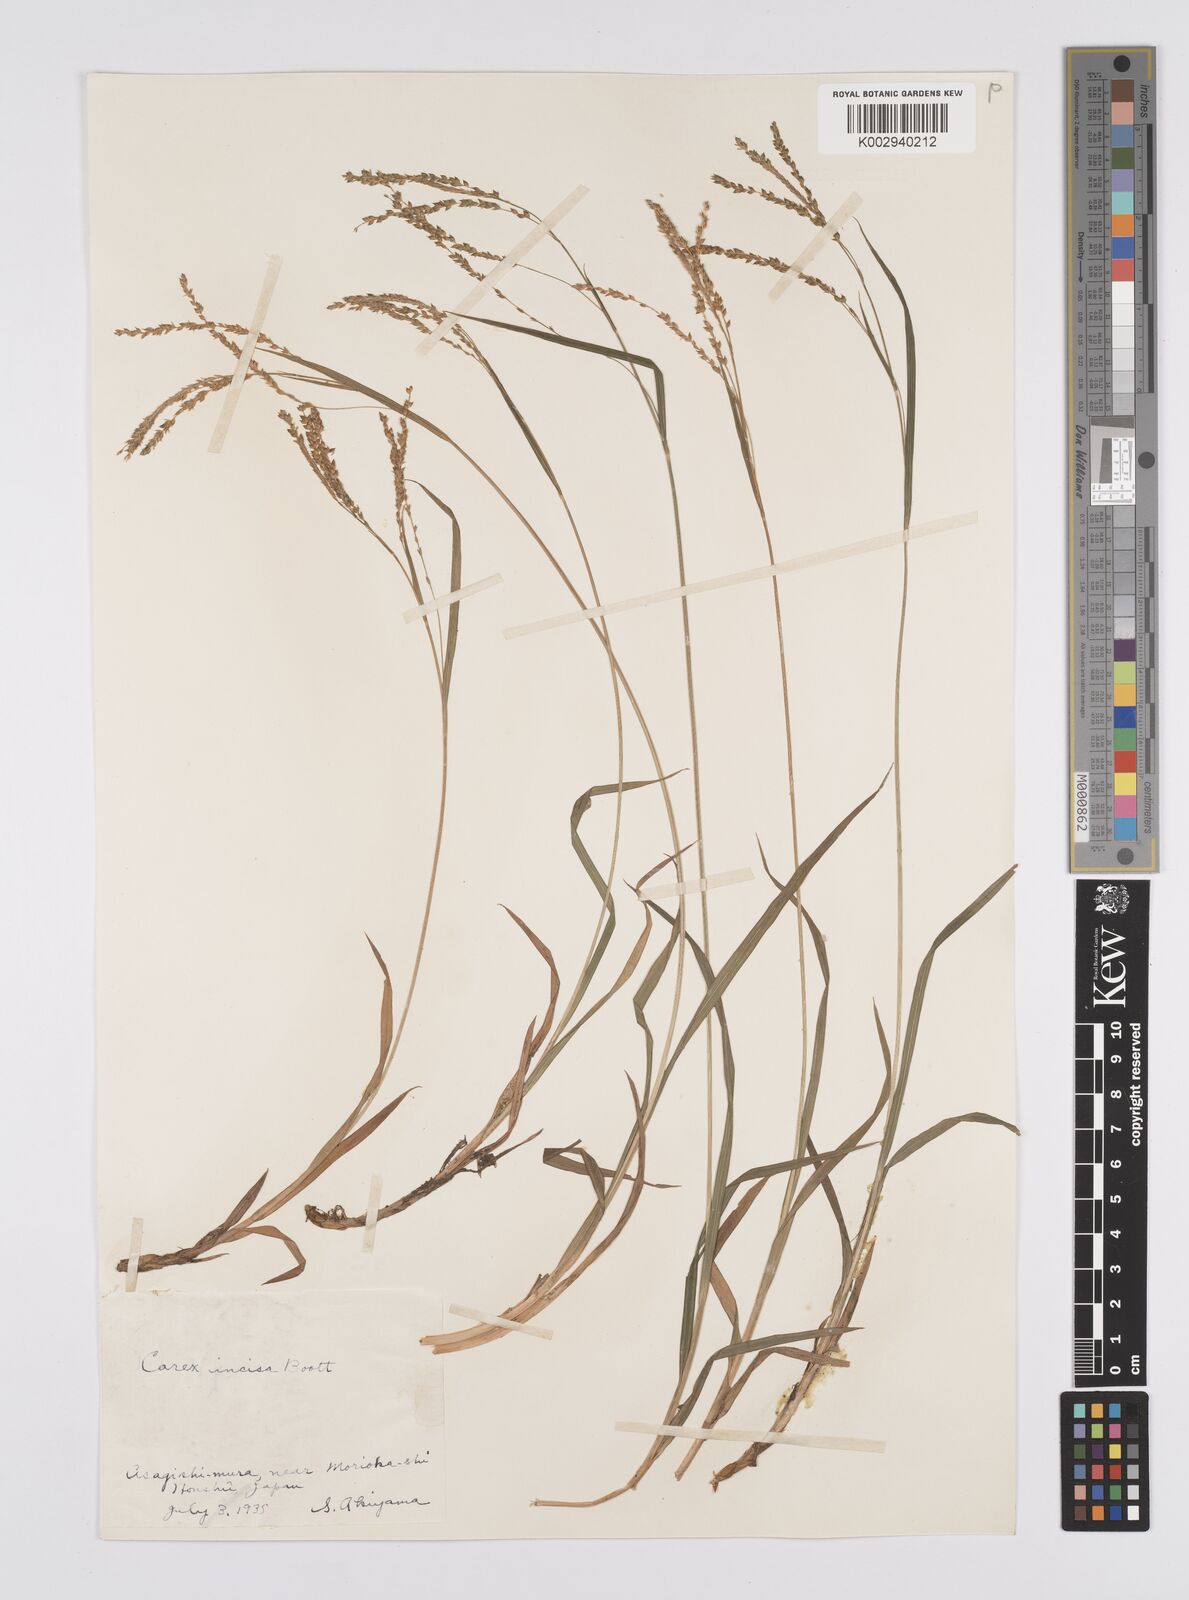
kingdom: Plantae
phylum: Tracheophyta
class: Liliopsida
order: Poales
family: Cyperaceae
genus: Carex
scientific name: Carex incisa
